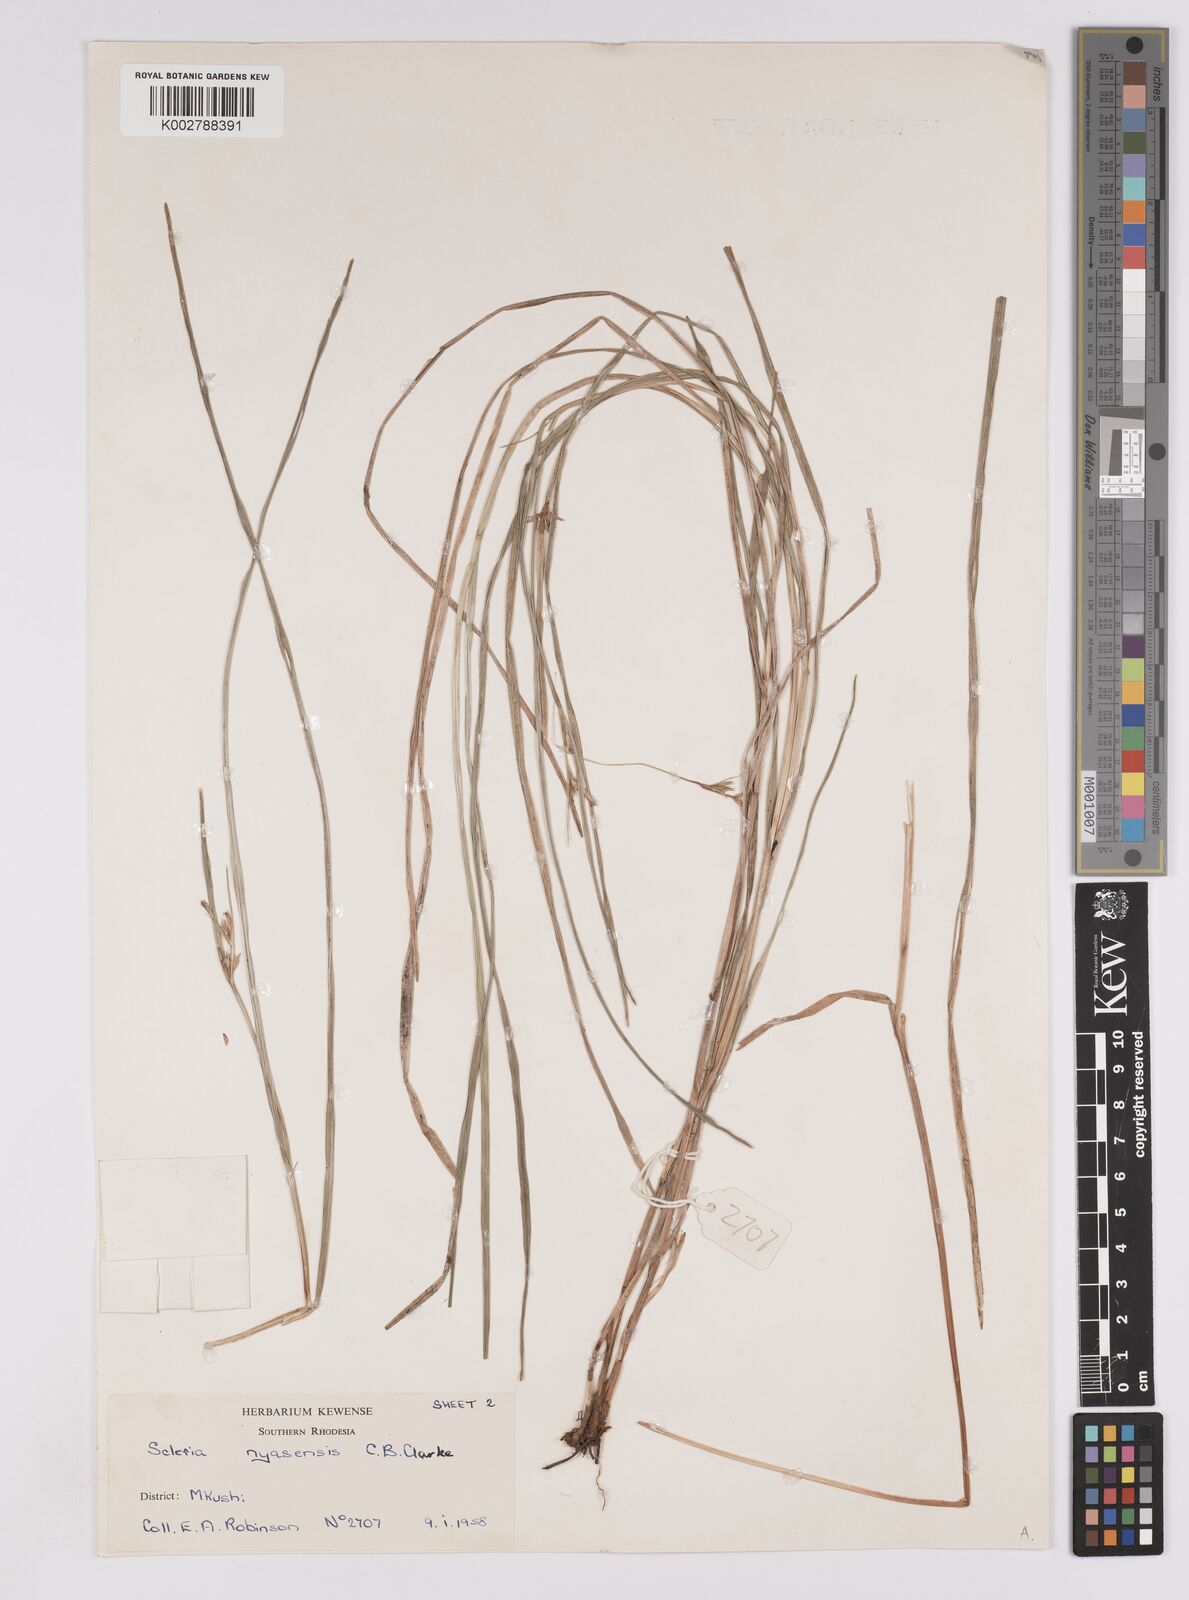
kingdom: Plantae
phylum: Tracheophyta
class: Liliopsida
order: Poales
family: Cyperaceae
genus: Scleria
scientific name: Scleria nyasensis
